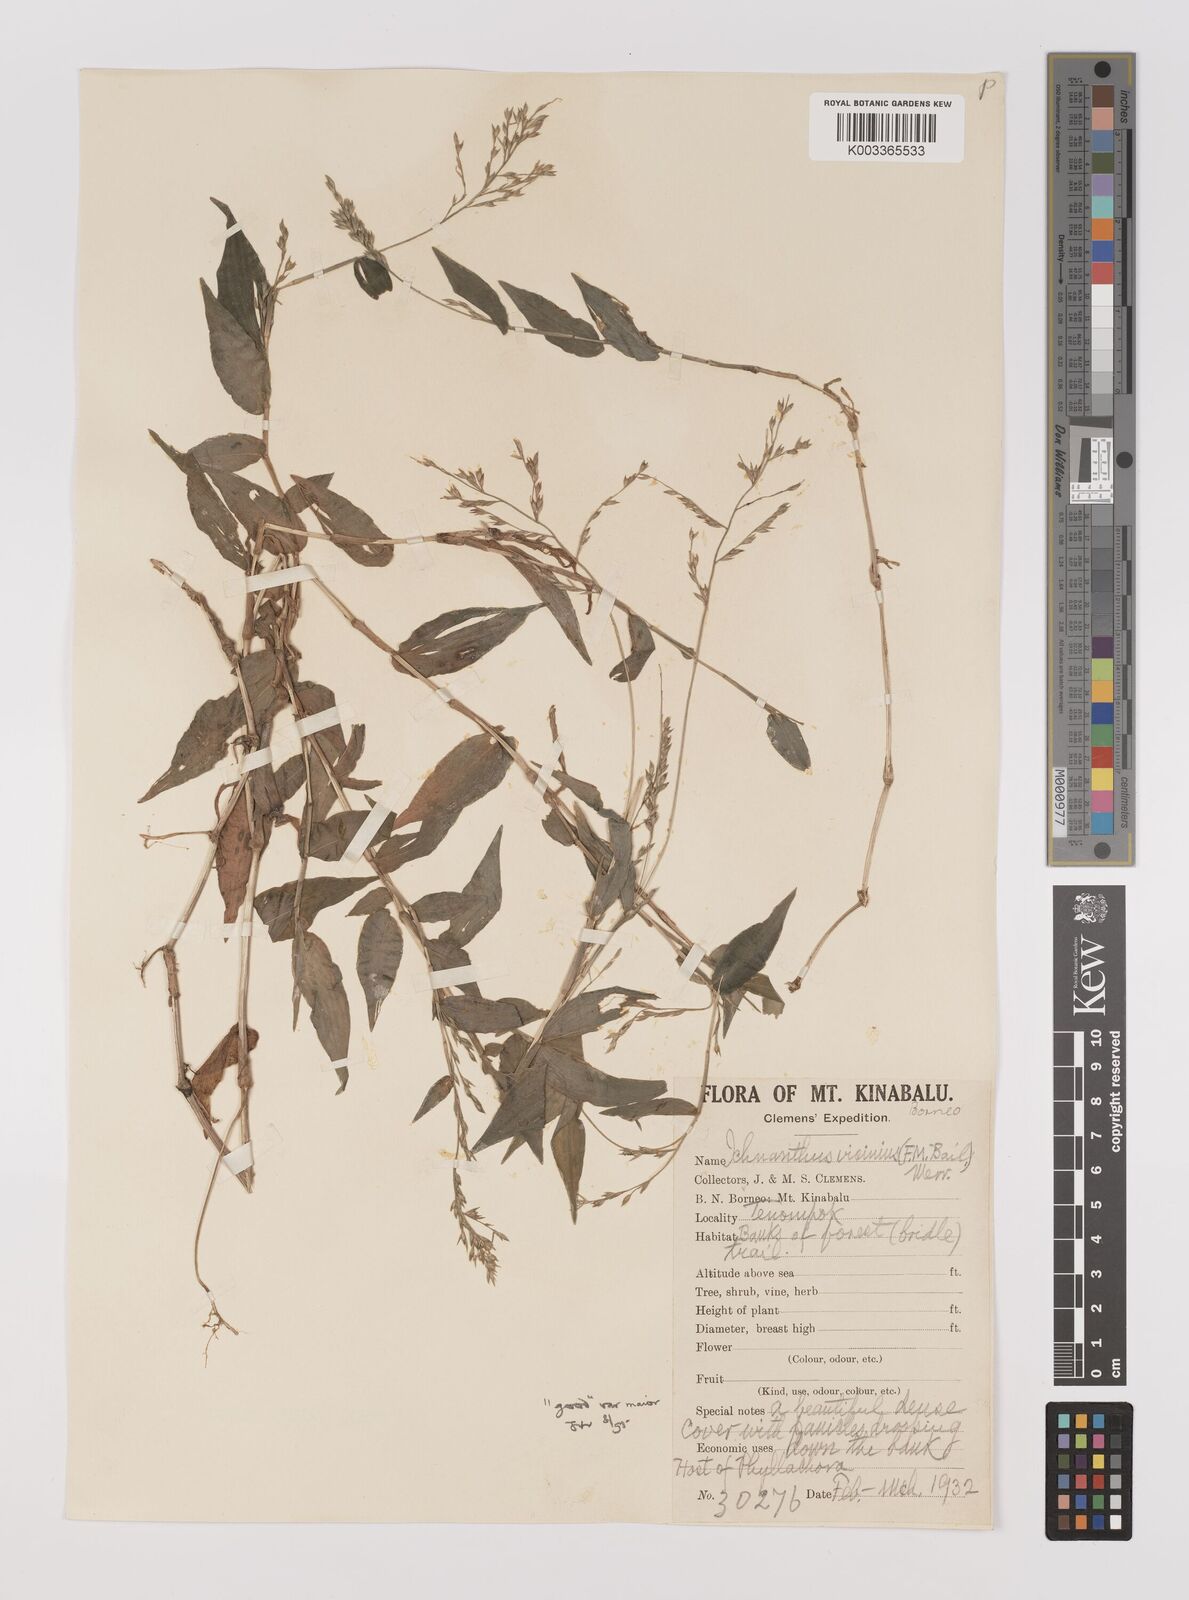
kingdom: Plantae
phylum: Tracheophyta
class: Liliopsida
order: Poales
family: Poaceae
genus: Ichnanthus
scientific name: Ichnanthus pallens
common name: Water grass
